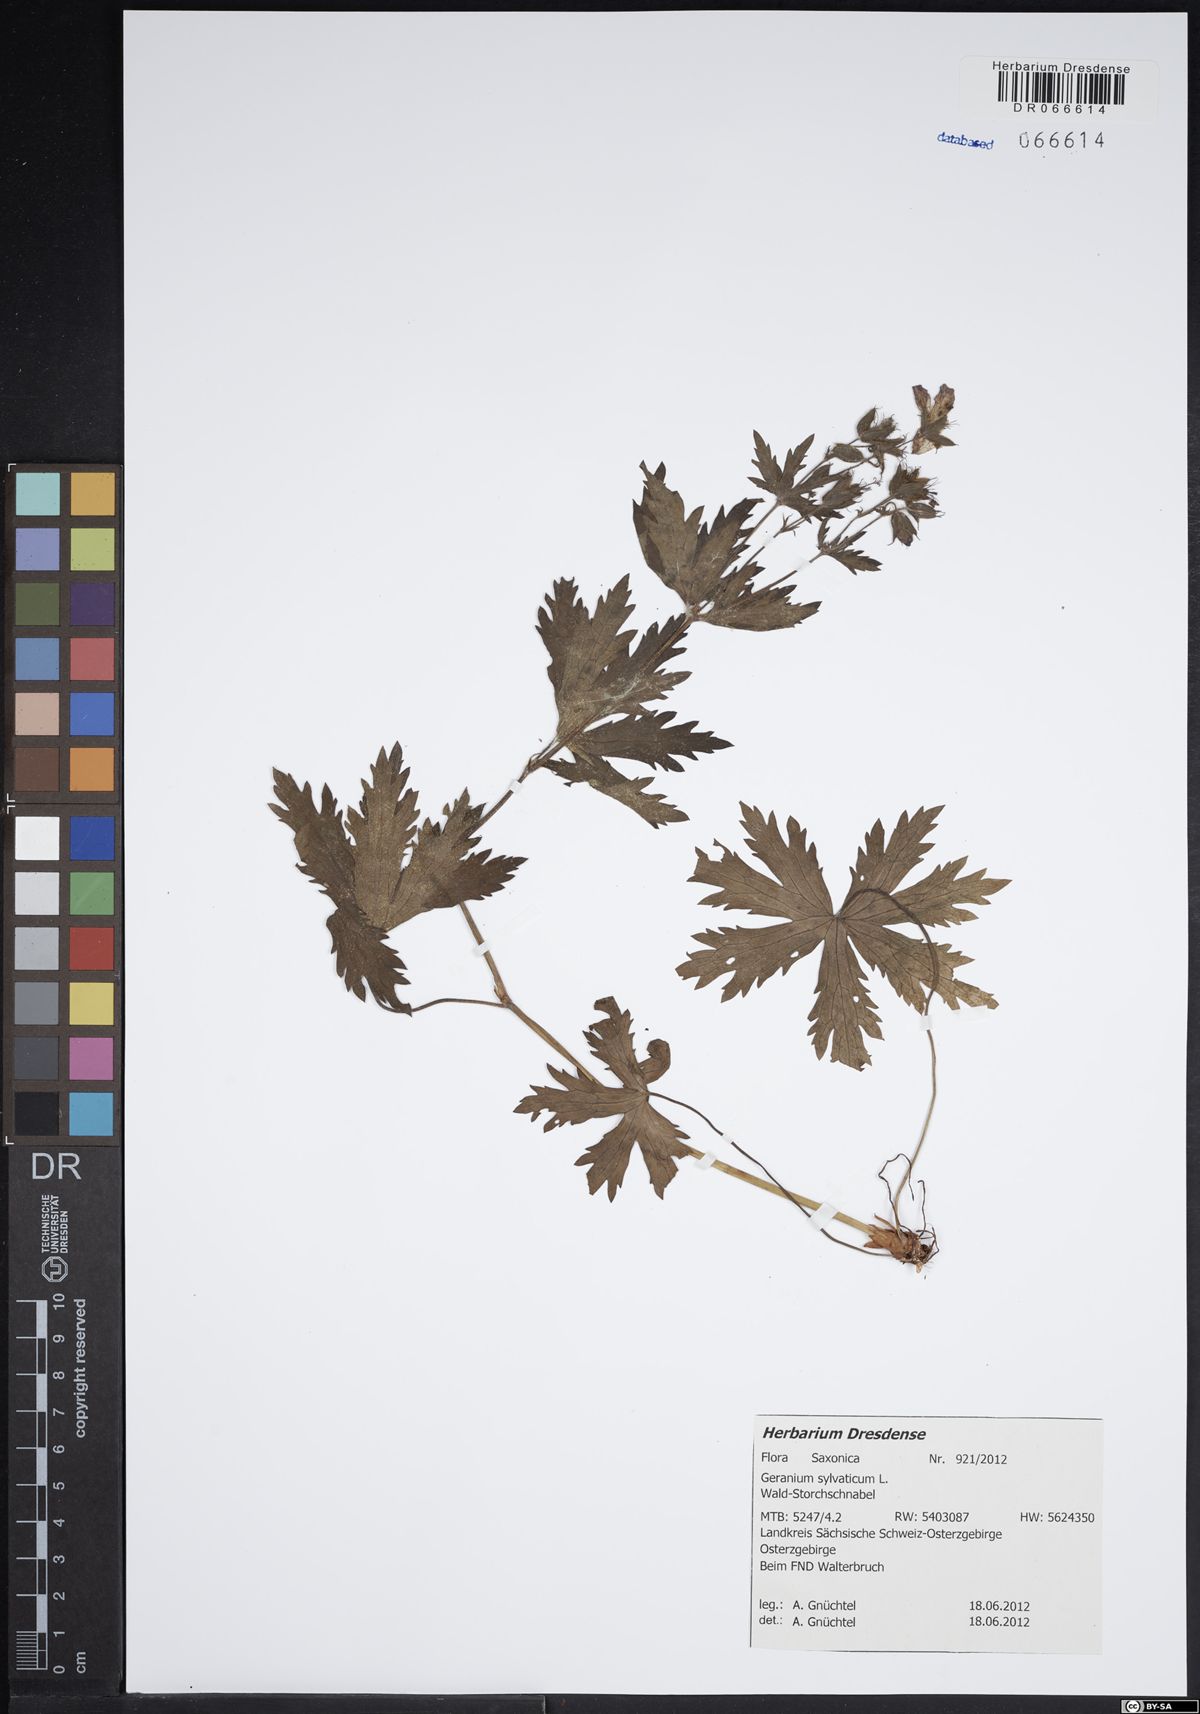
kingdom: Plantae
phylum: Tracheophyta
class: Magnoliopsida
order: Geraniales
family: Geraniaceae
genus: Geranium
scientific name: Geranium sylvaticum
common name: Wood crane's-bill
